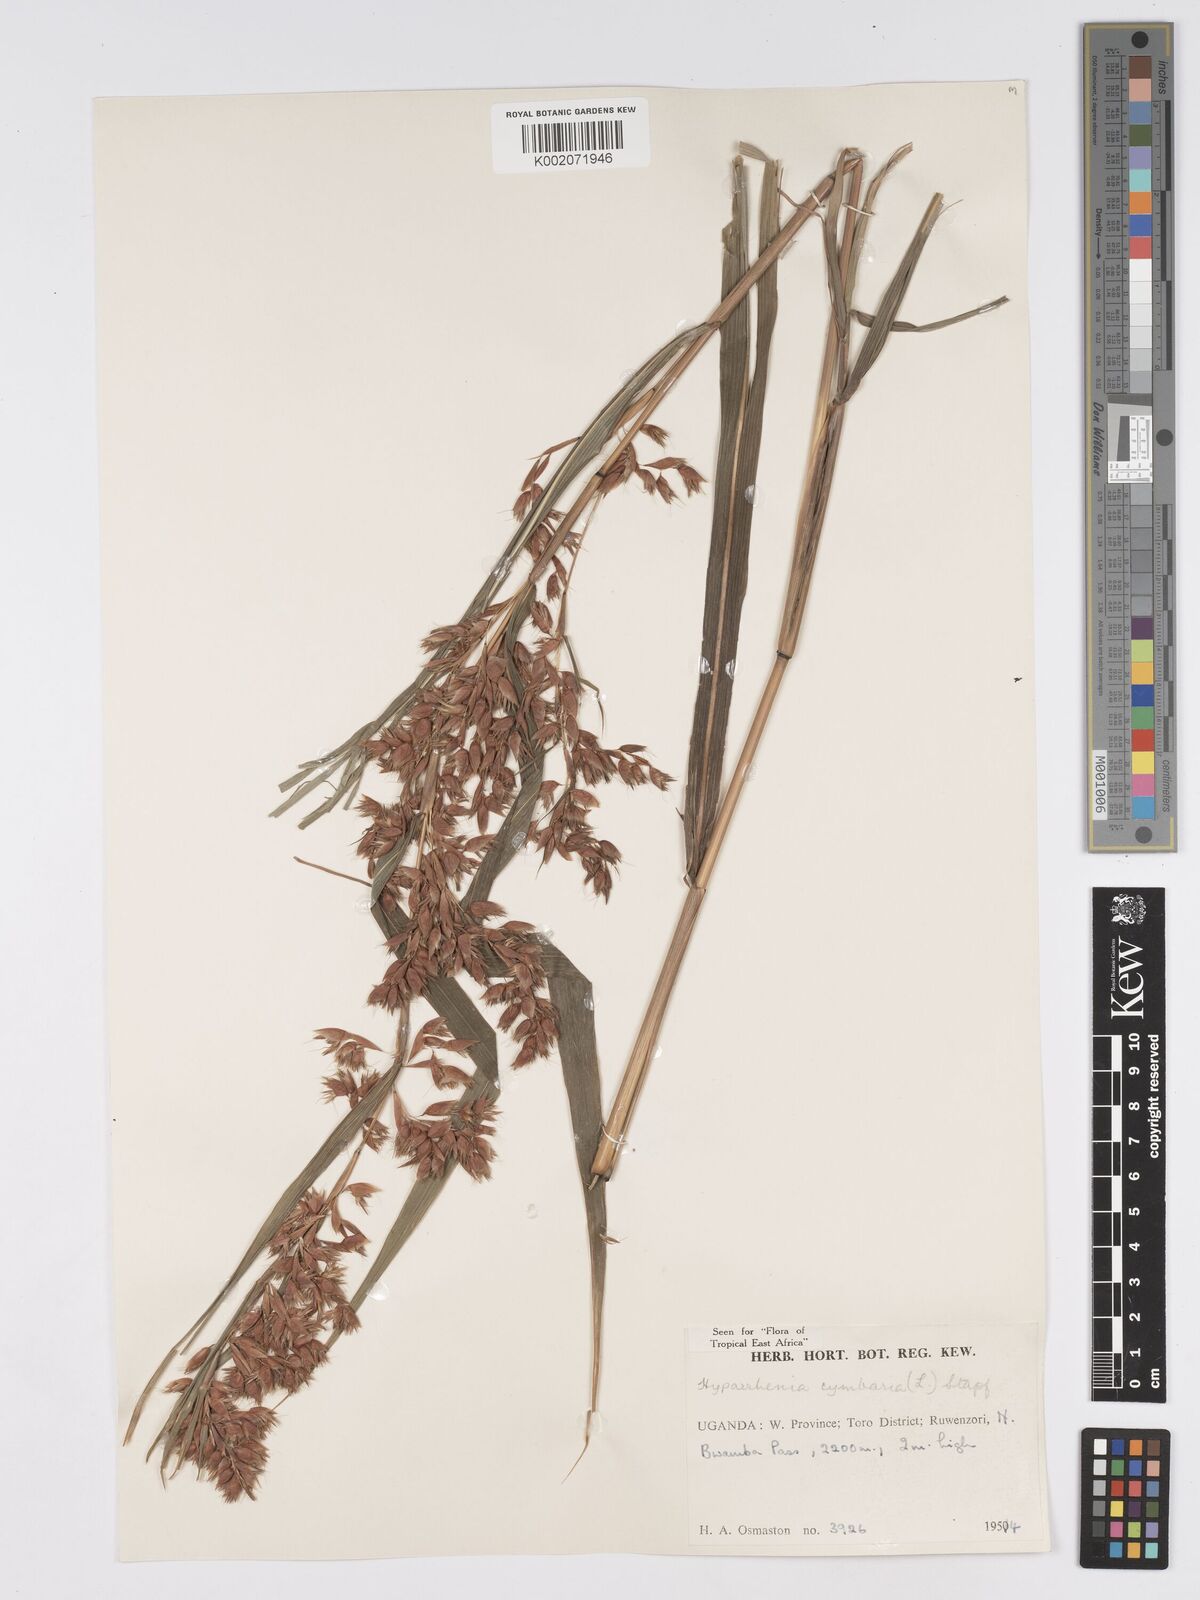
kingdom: Plantae
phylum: Tracheophyta
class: Liliopsida
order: Poales
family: Poaceae
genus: Hyparrhenia
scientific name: Hyparrhenia cymbaria
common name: Boat thatching grass
